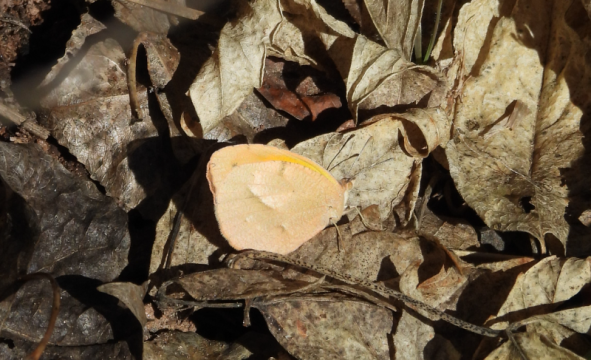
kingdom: Animalia
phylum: Arthropoda
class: Insecta
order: Lepidoptera
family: Pieridae
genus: Abaeis
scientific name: Abaeis nicippe
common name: Sleepy Orange
